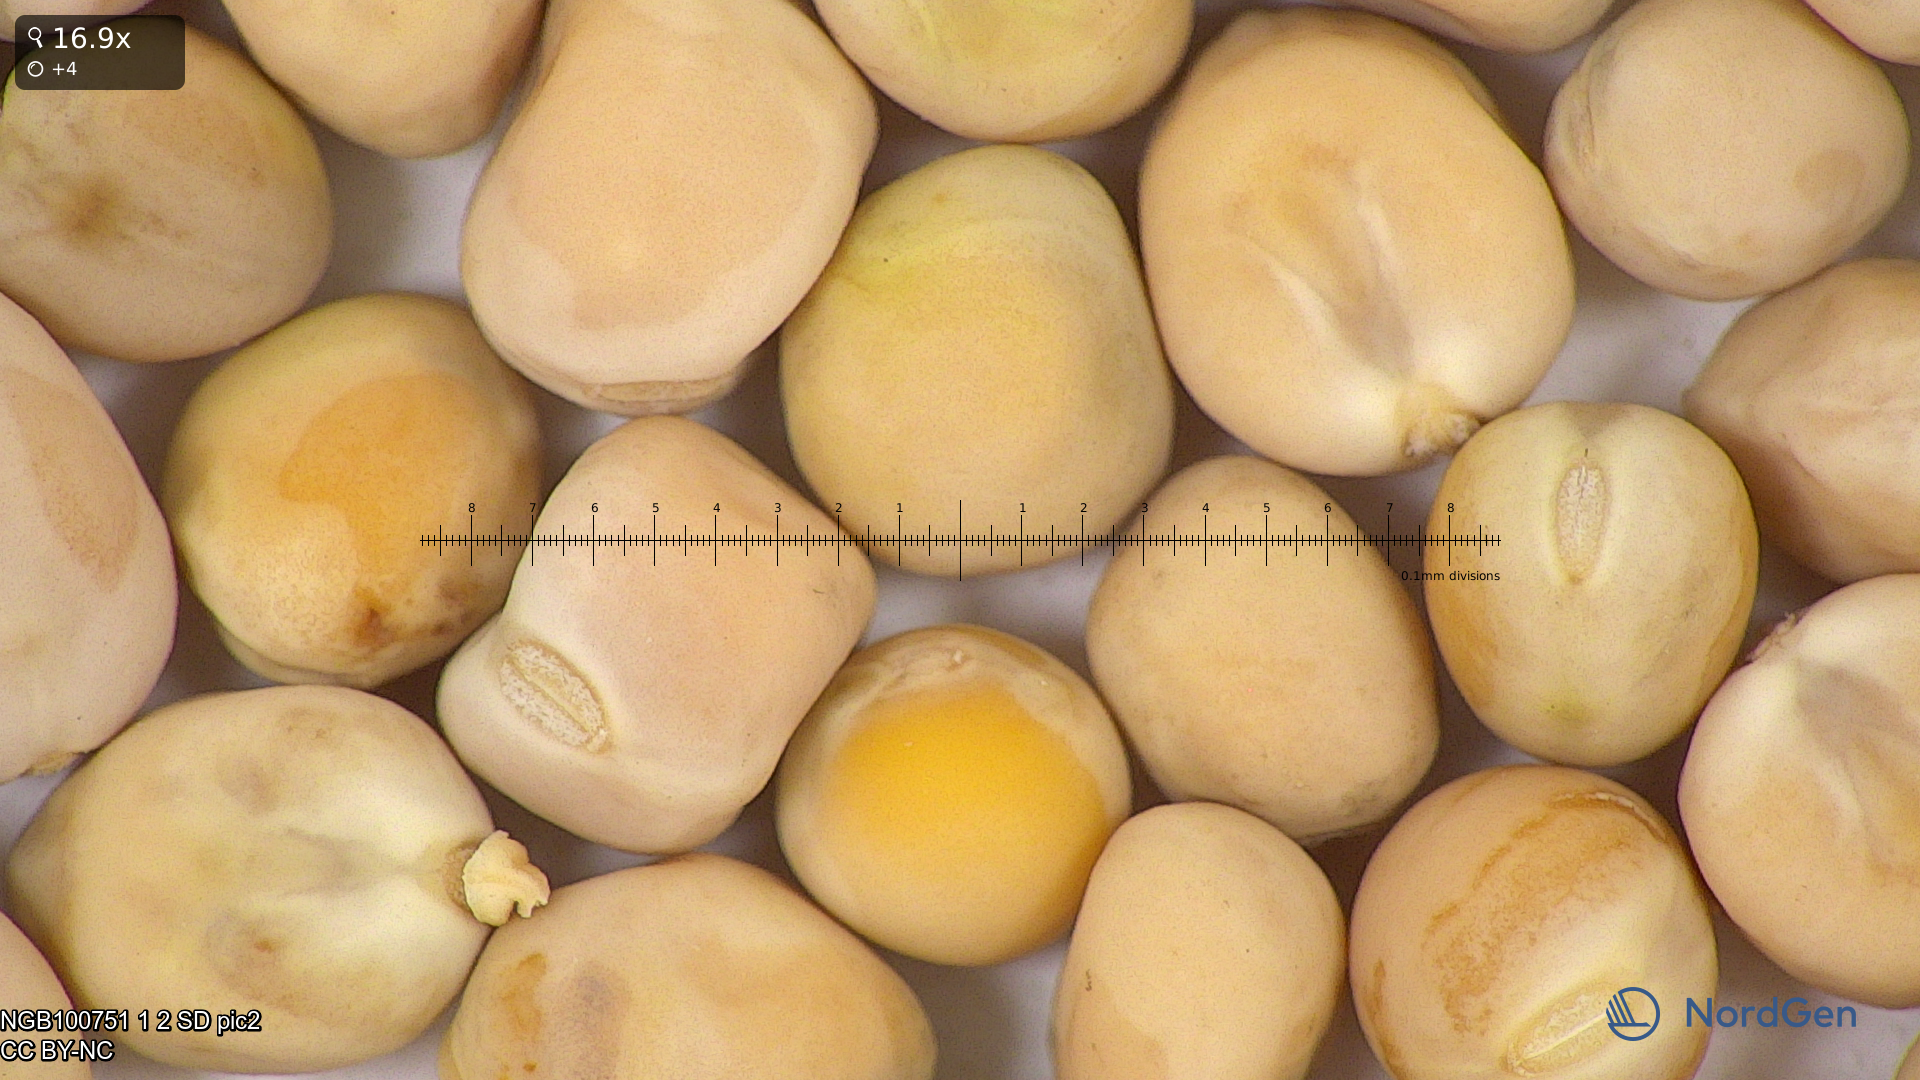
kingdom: Plantae
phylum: Tracheophyta
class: Magnoliopsida
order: Fabales
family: Fabaceae
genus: Lathyrus
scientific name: Lathyrus oleraceus
